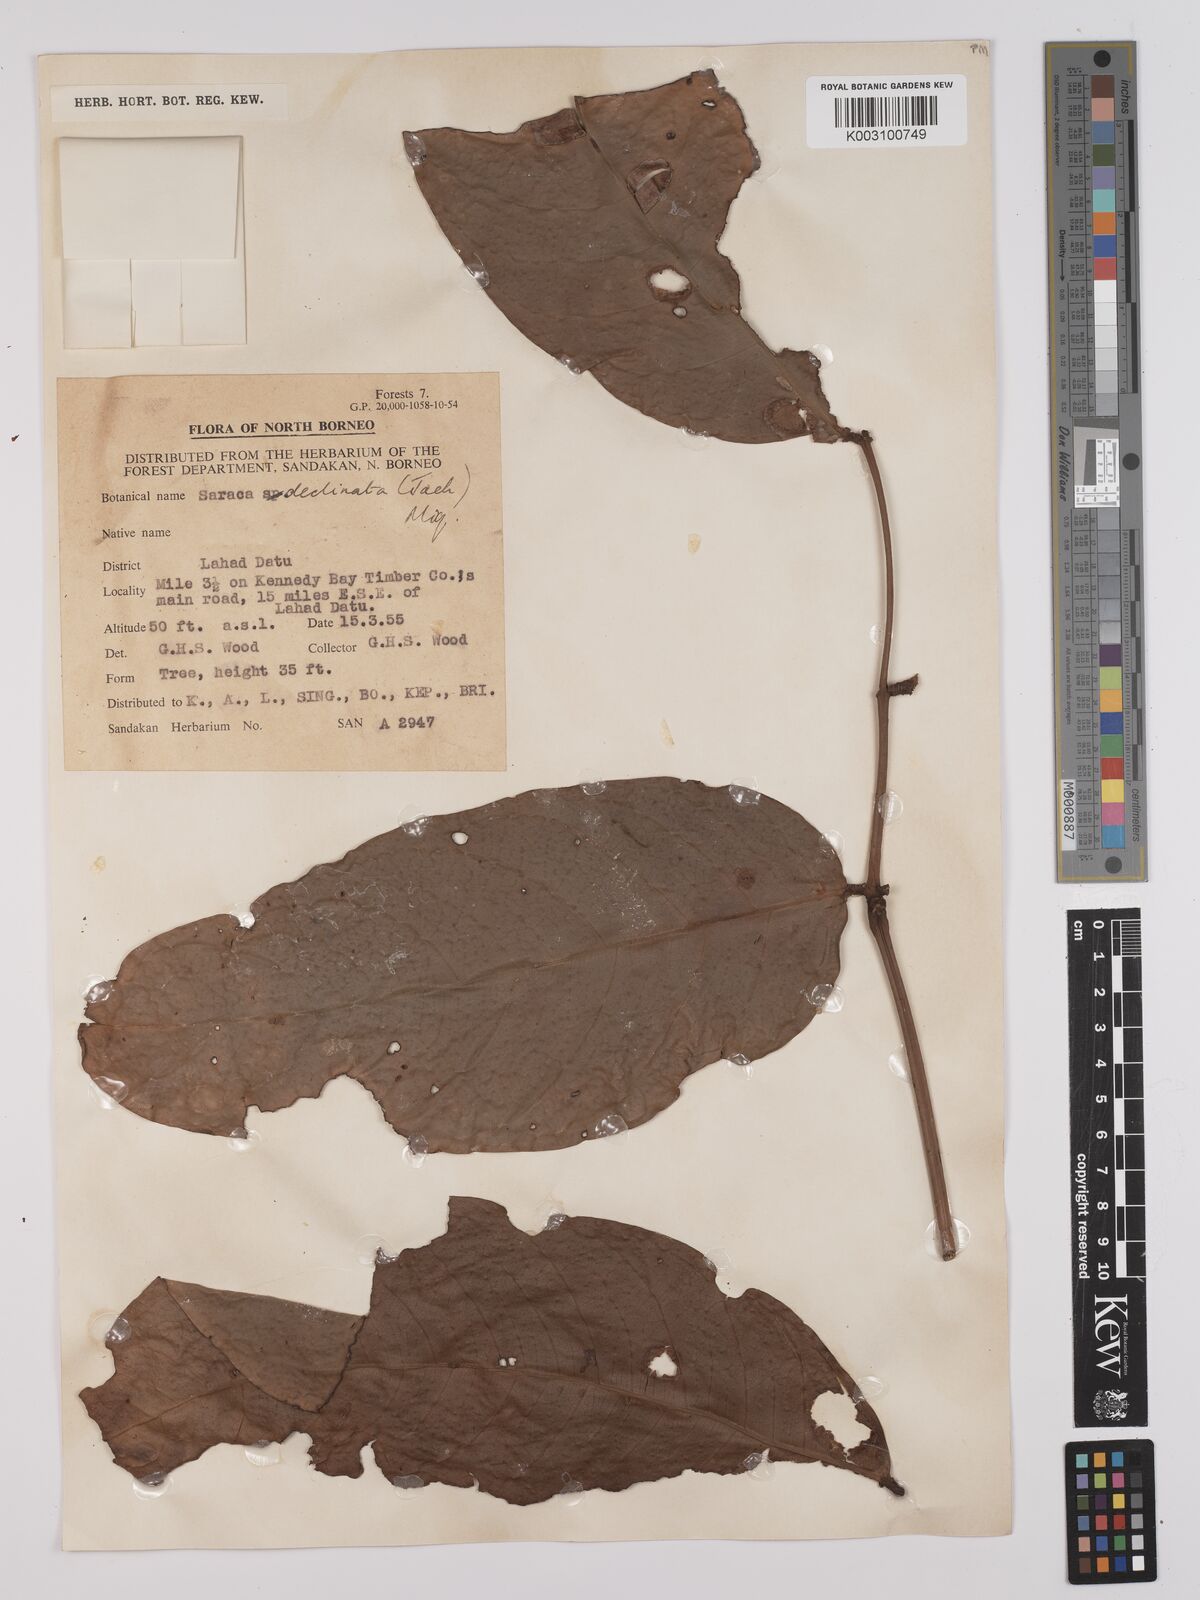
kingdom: Plantae
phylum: Tracheophyta
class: Magnoliopsida
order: Fabales
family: Fabaceae
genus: Saraca
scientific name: Saraca declinata
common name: Red saraca
